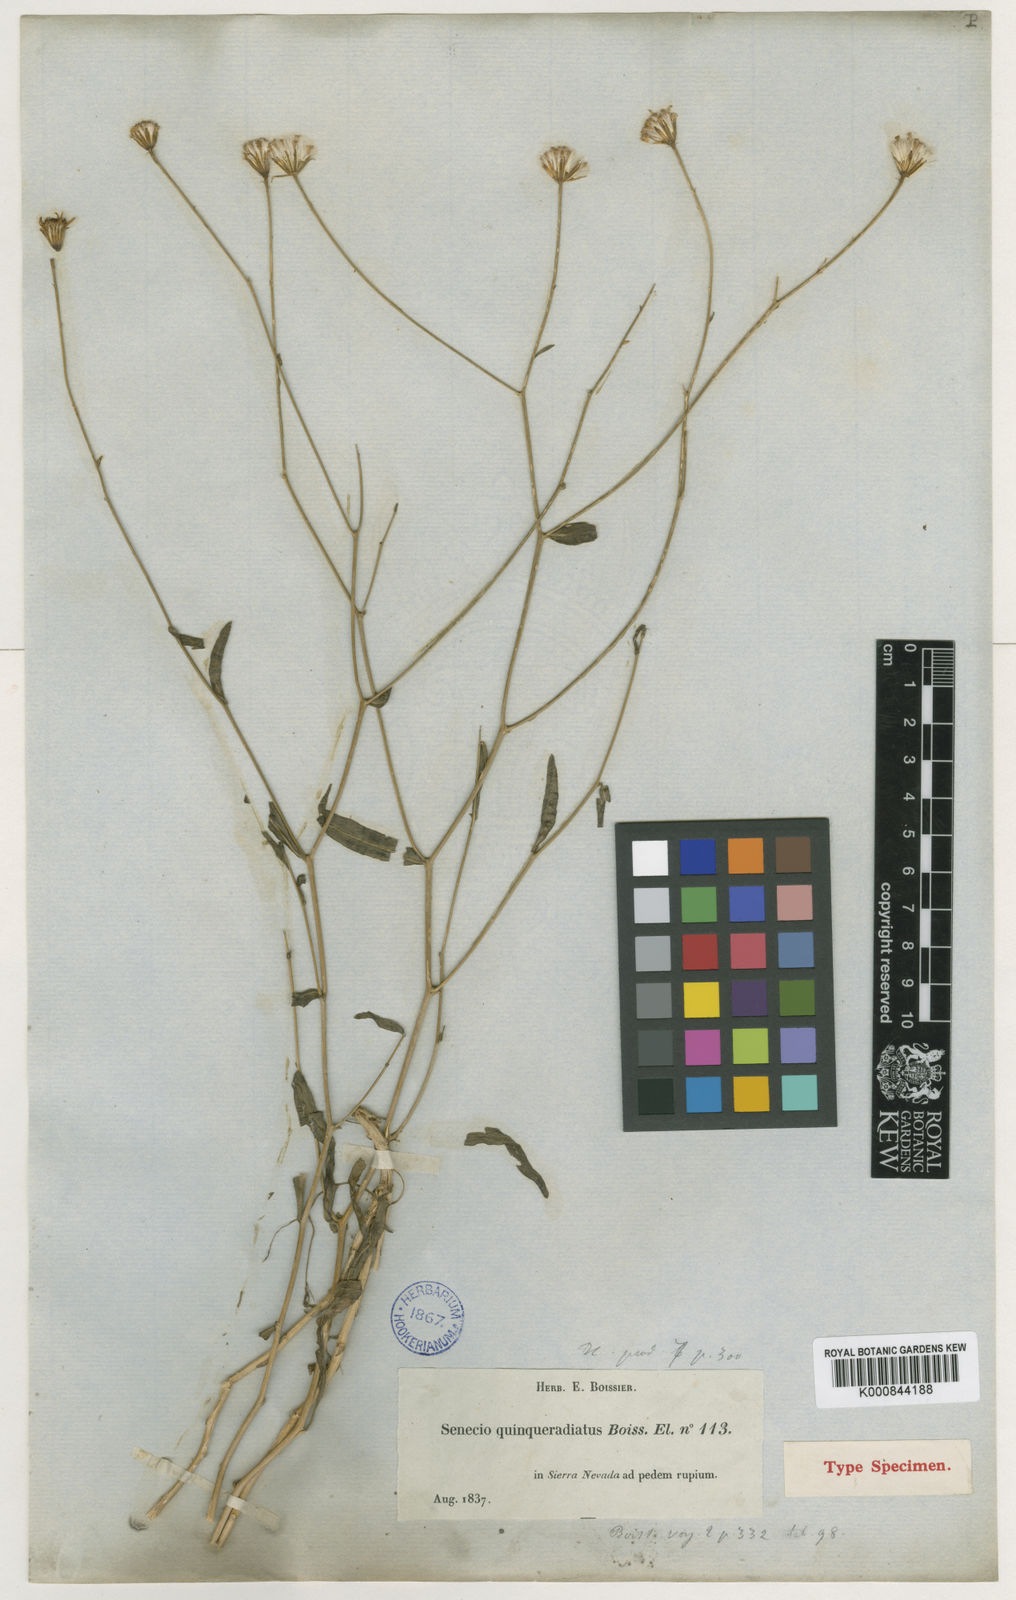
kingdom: Plantae
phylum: Tracheophyta
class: Magnoliopsida
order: Asterales
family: Asteraceae
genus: Senecio
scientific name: Senecio
